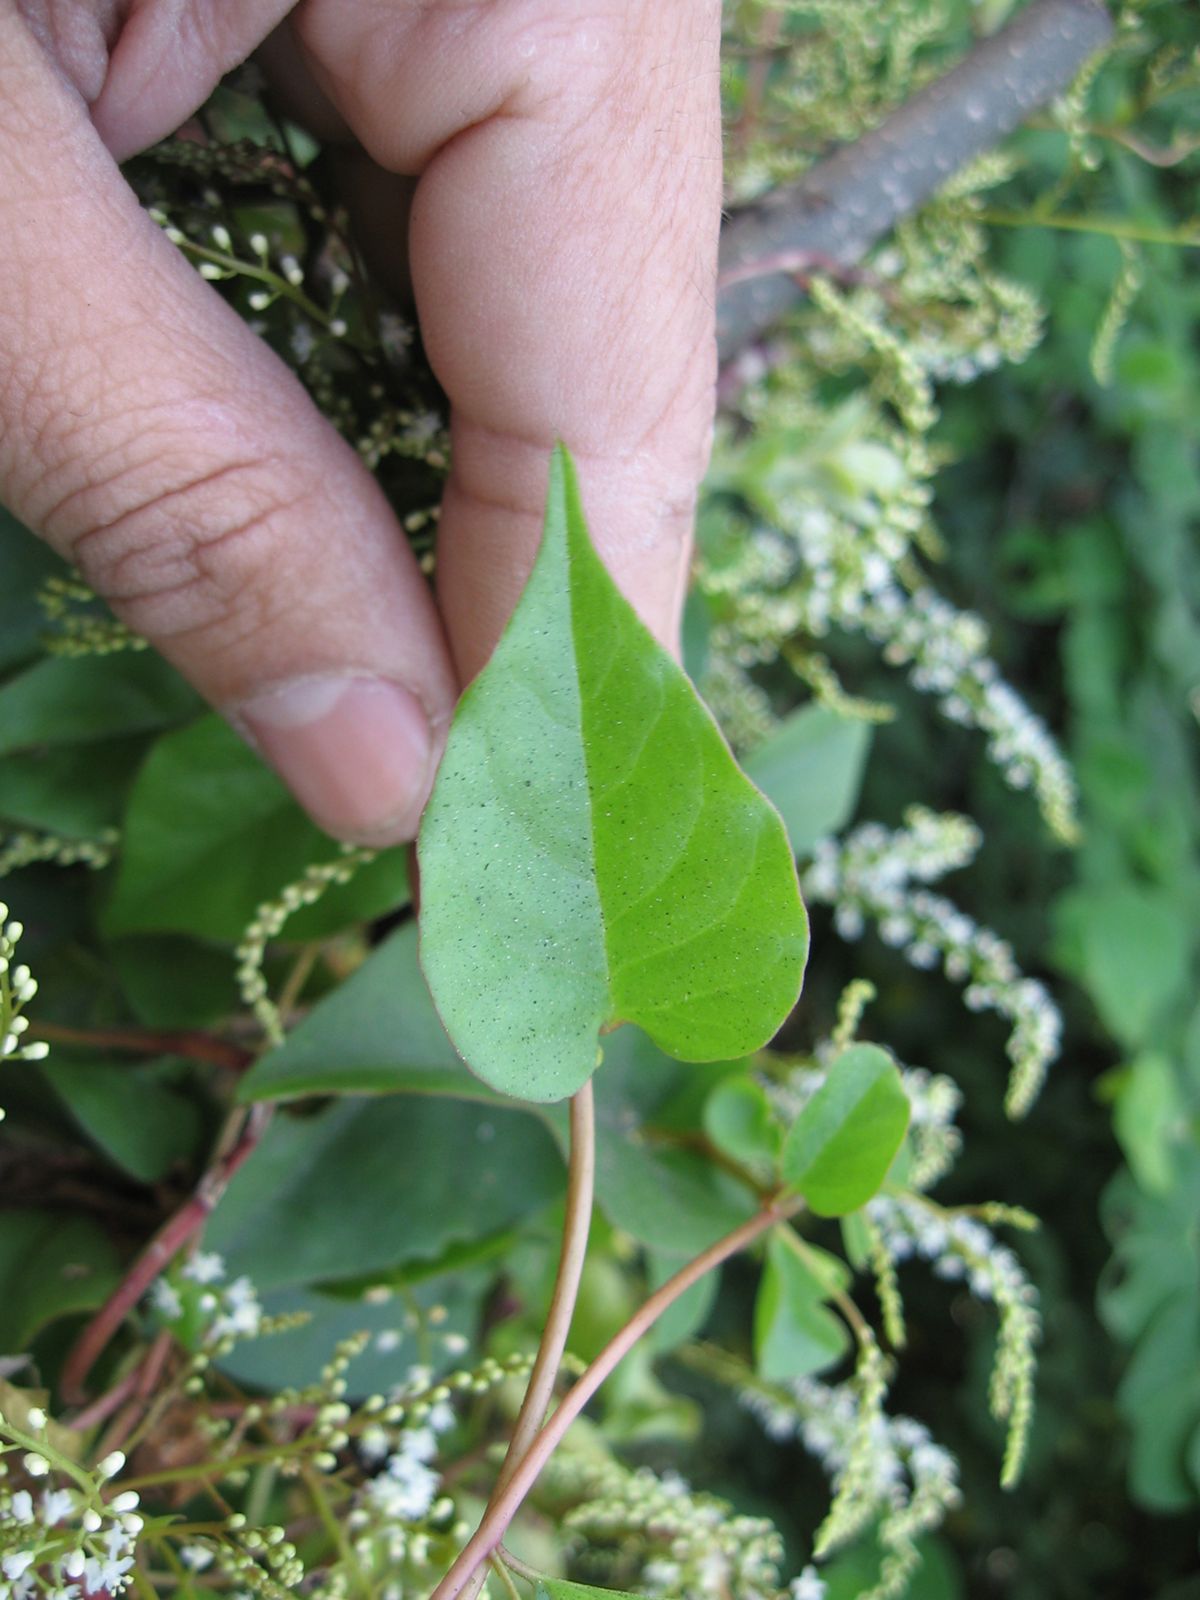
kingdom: Plantae
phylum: Tracheophyta
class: Magnoliopsida
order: Caryophyllales
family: Basellaceae
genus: Anredera
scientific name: Anredera vesicaria
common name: Sacasile
